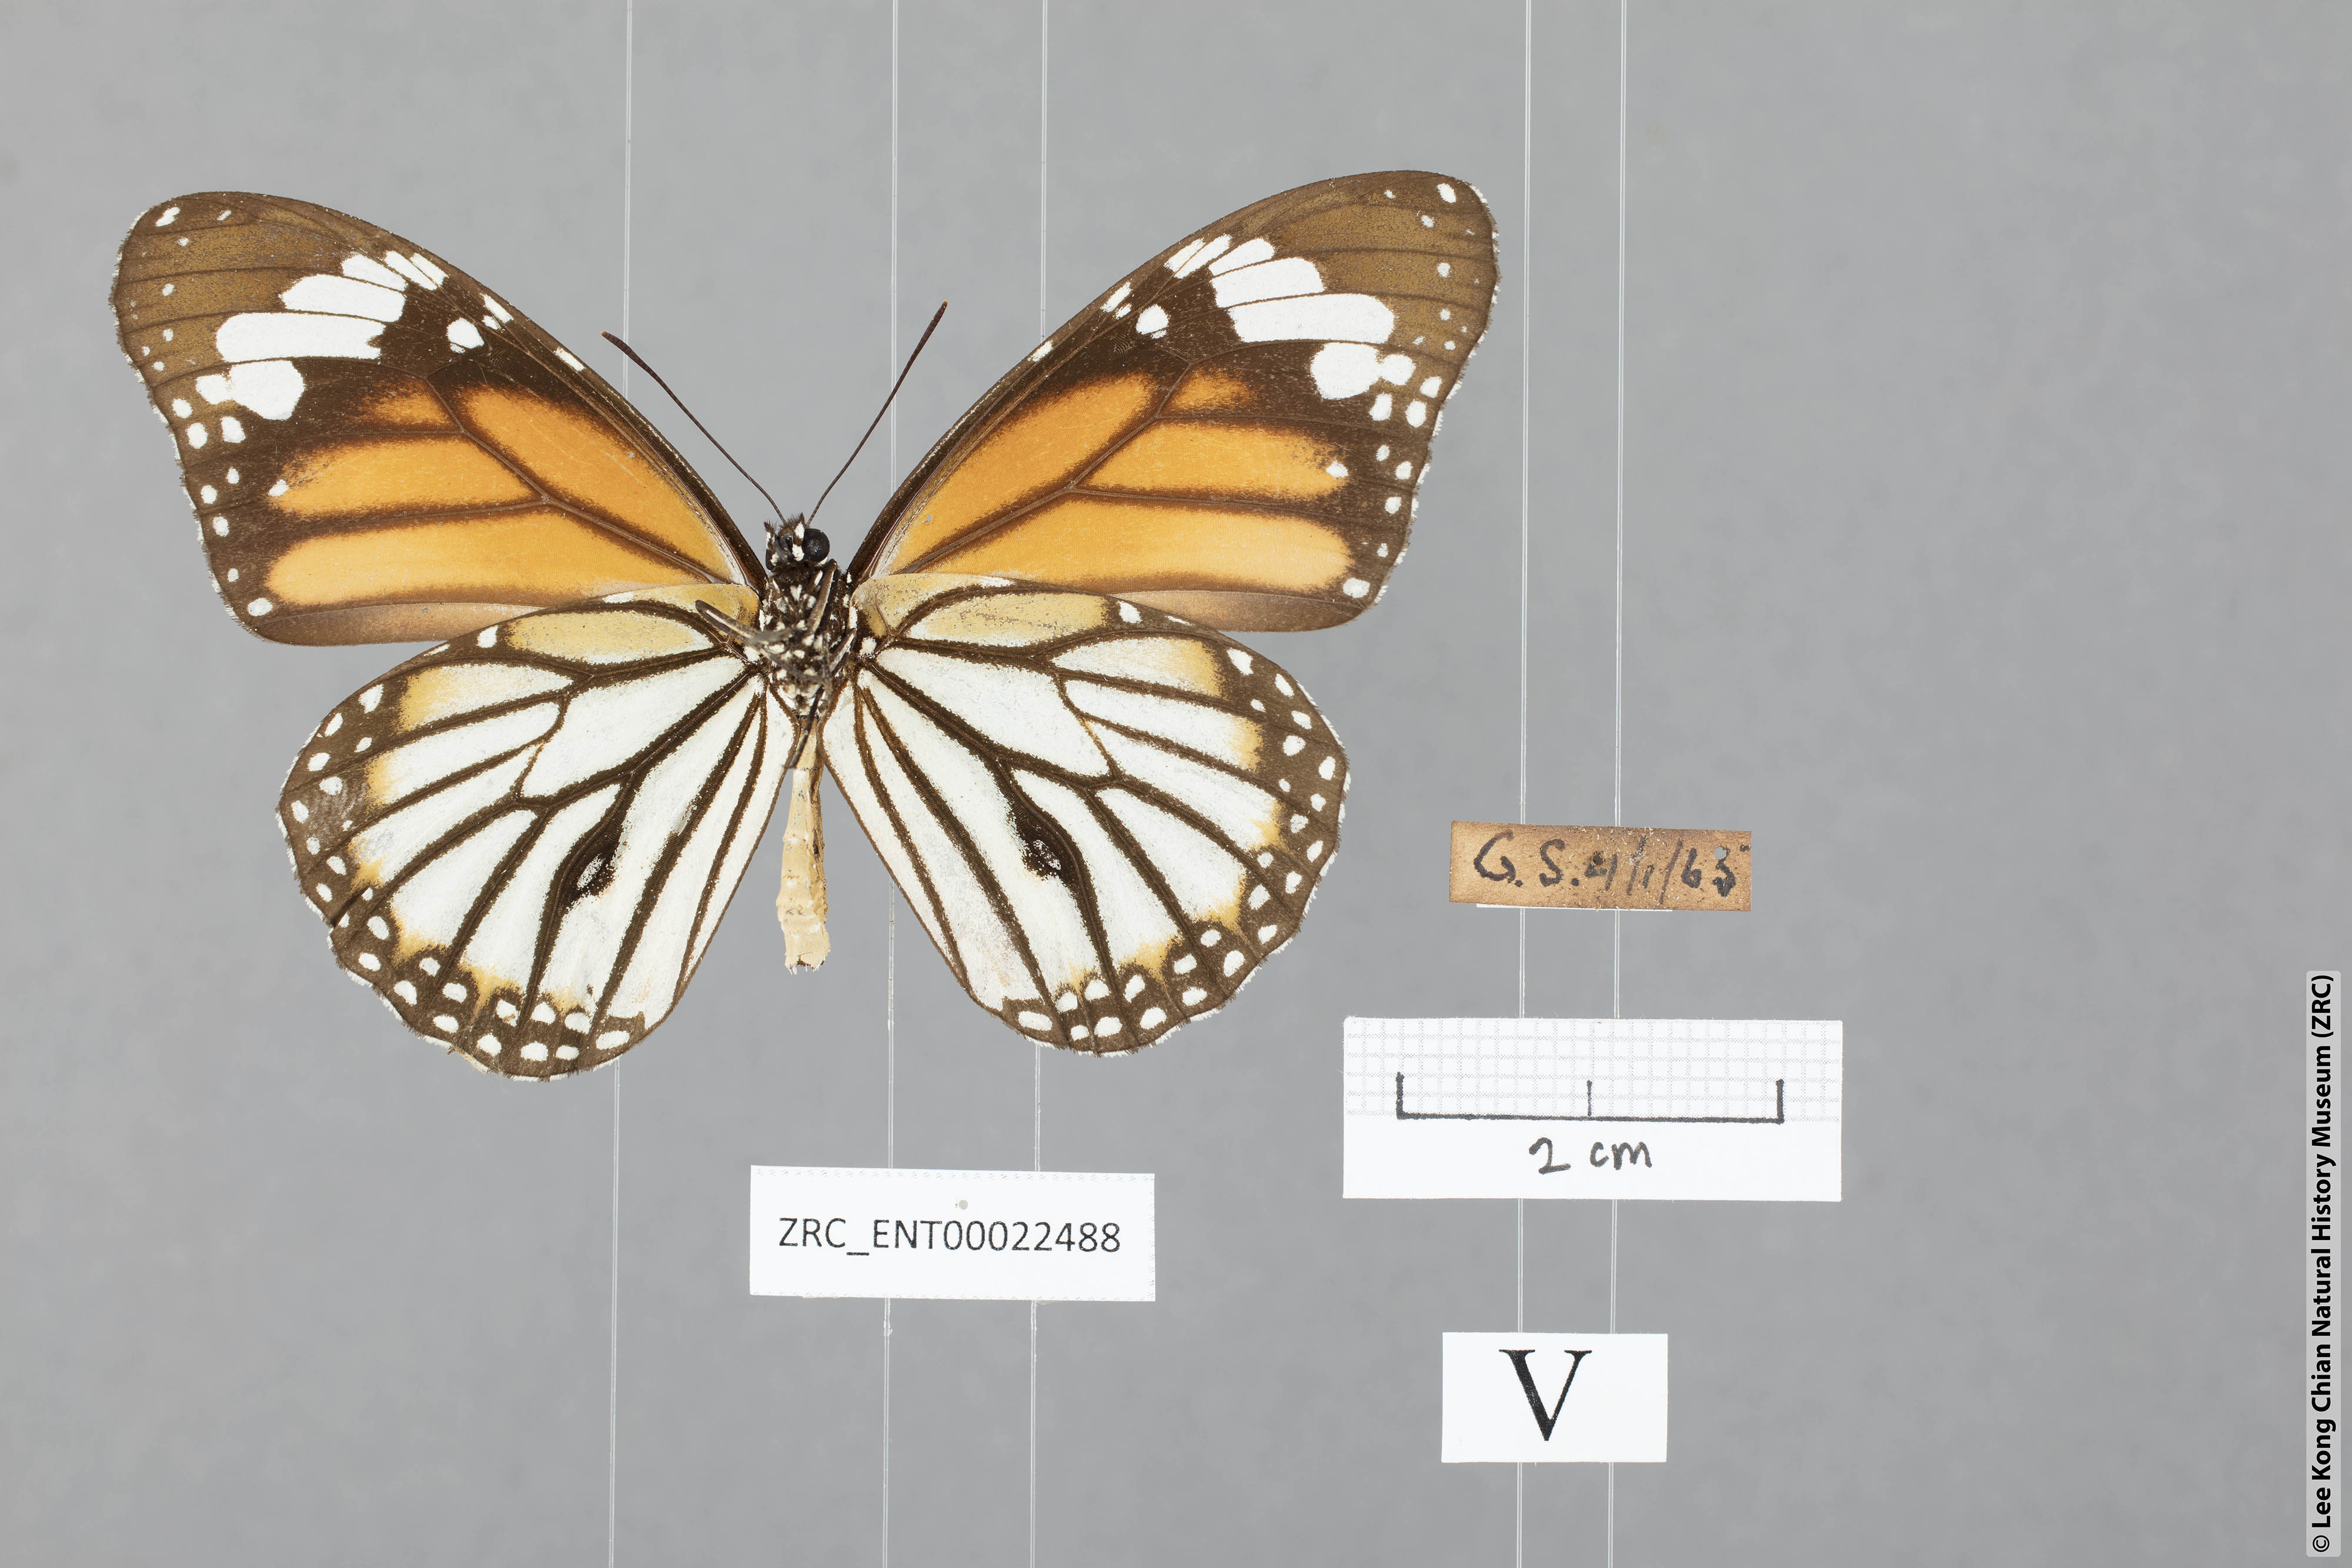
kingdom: Animalia
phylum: Arthropoda
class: Insecta
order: Lepidoptera
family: Nymphalidae
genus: Danaus
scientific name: Danaus genutia
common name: Common tiger butterfly
